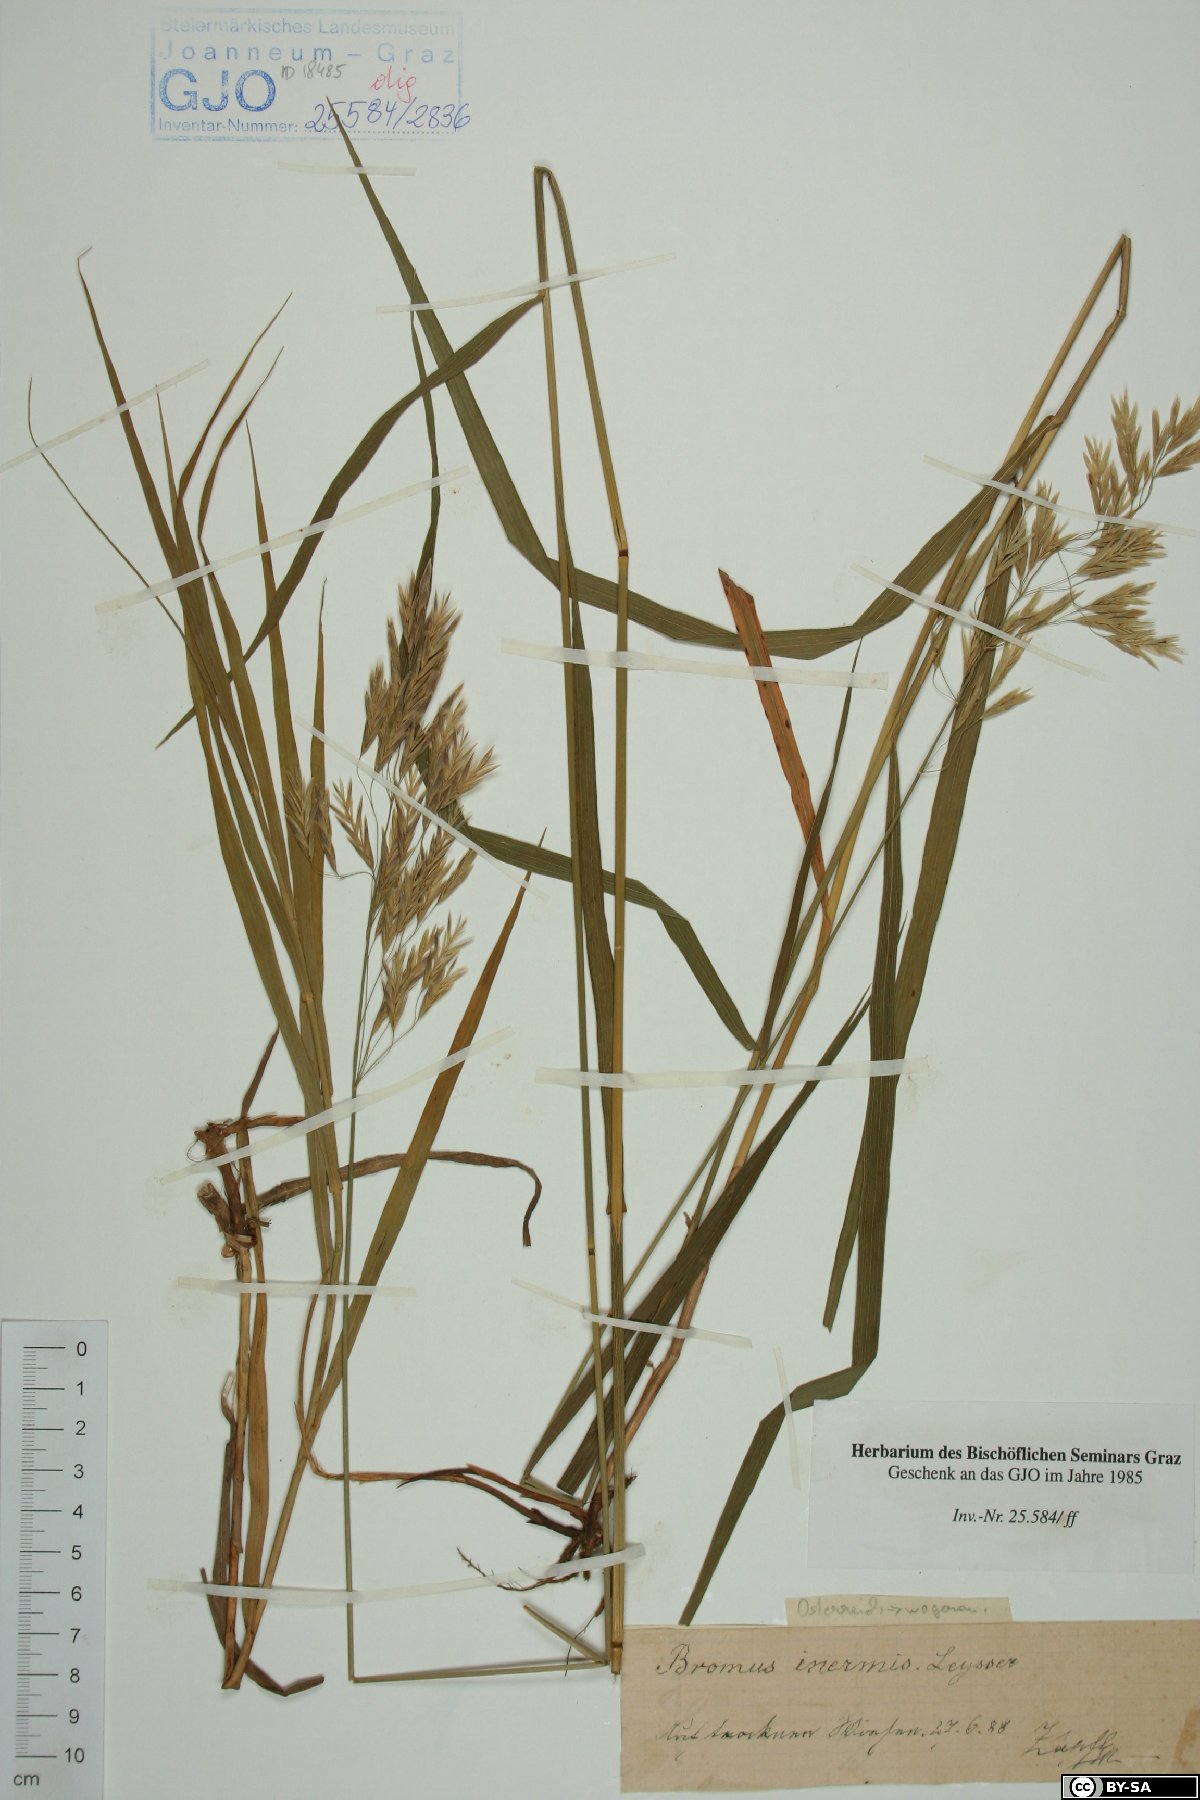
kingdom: Plantae
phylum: Tracheophyta
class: Liliopsida
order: Poales
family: Poaceae
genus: Bromus
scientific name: Bromus inermis
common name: Smooth brome
